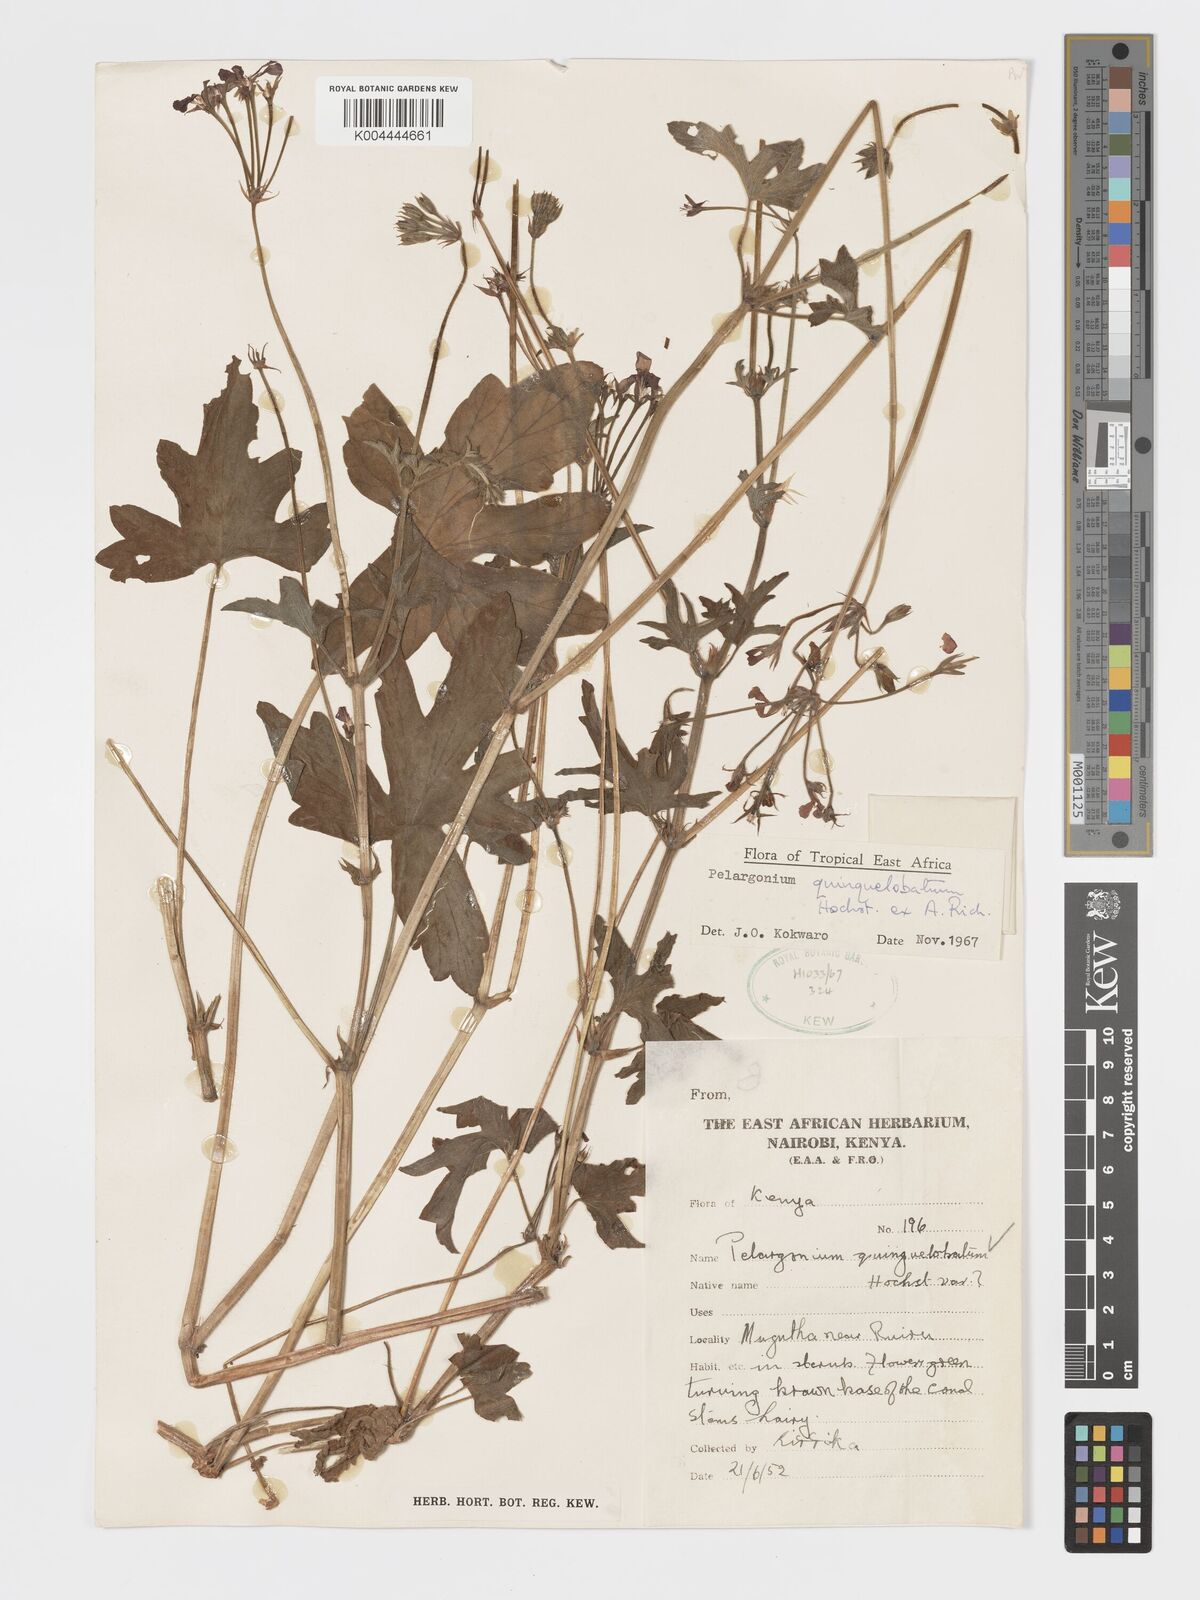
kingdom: Plantae
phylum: Tracheophyta
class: Magnoliopsida
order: Geraniales
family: Geraniaceae
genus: Pelargonium
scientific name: Pelargonium quinquelobatum
